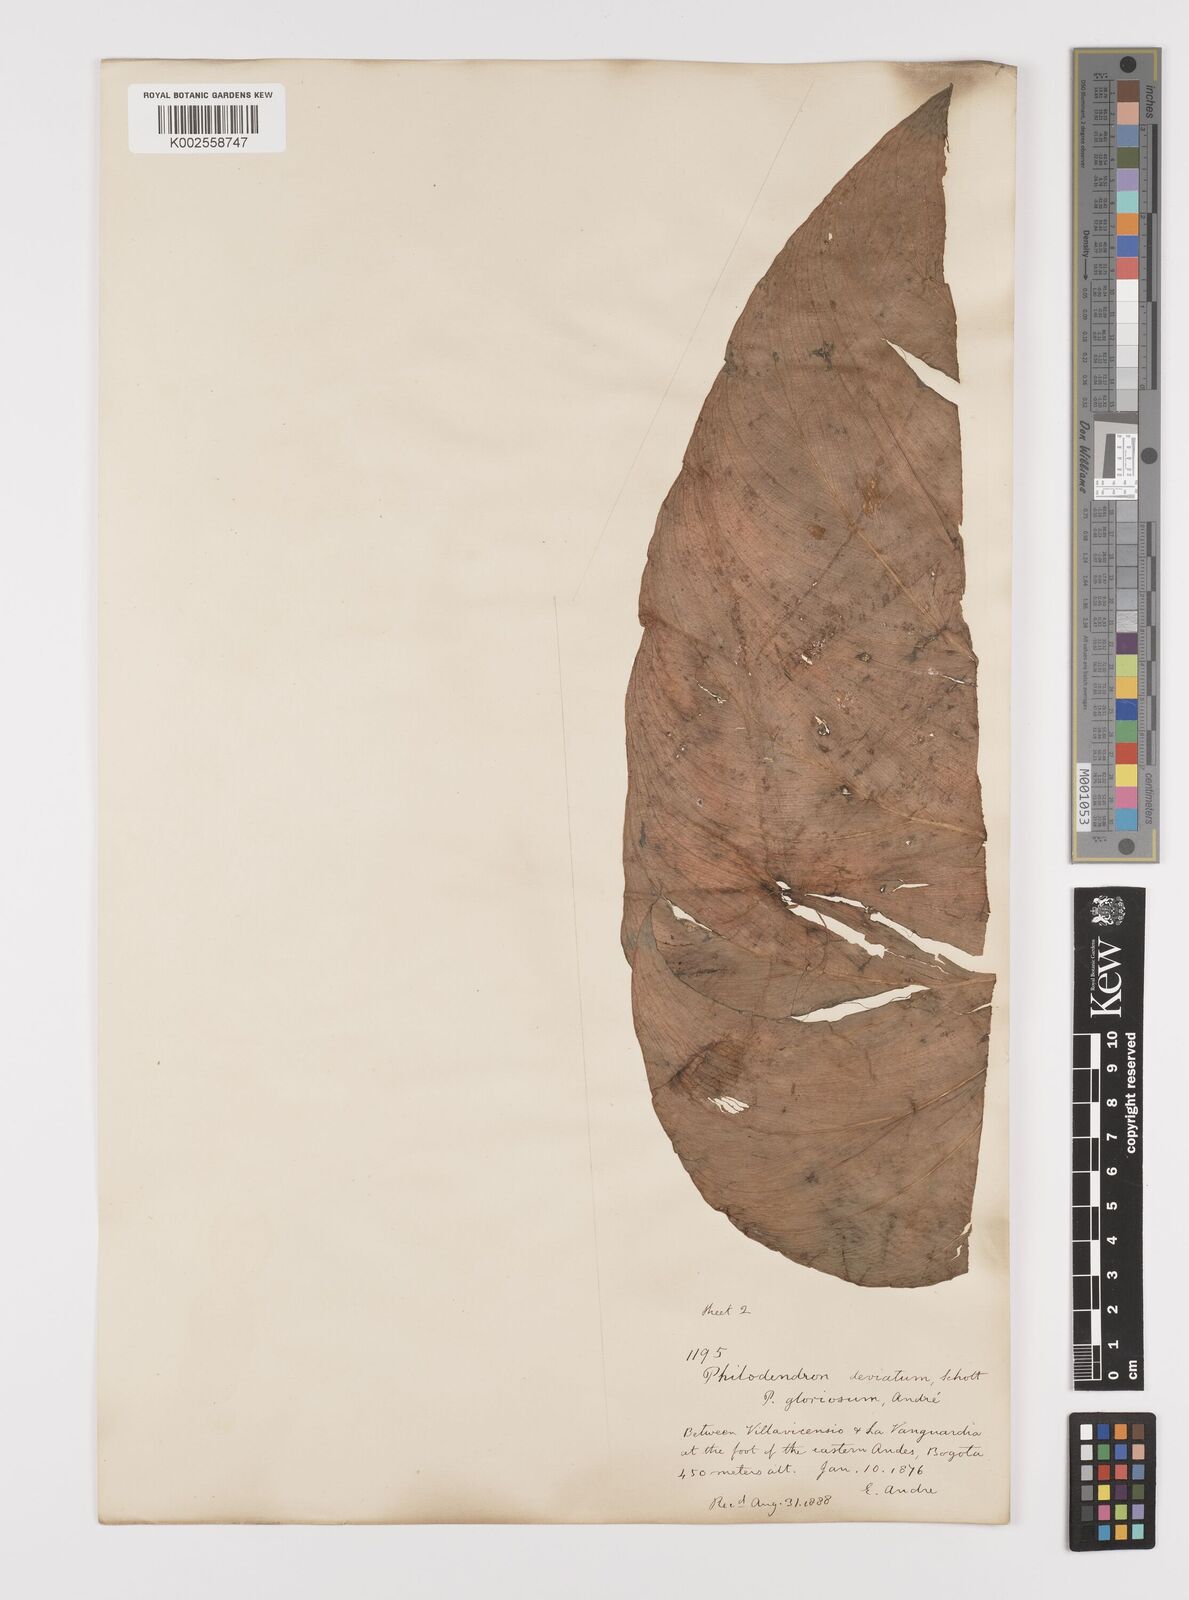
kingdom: Plantae
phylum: Tracheophyta
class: Liliopsida
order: Alismatales
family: Araceae
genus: Philodendron
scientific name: Philodendron jacquinii
